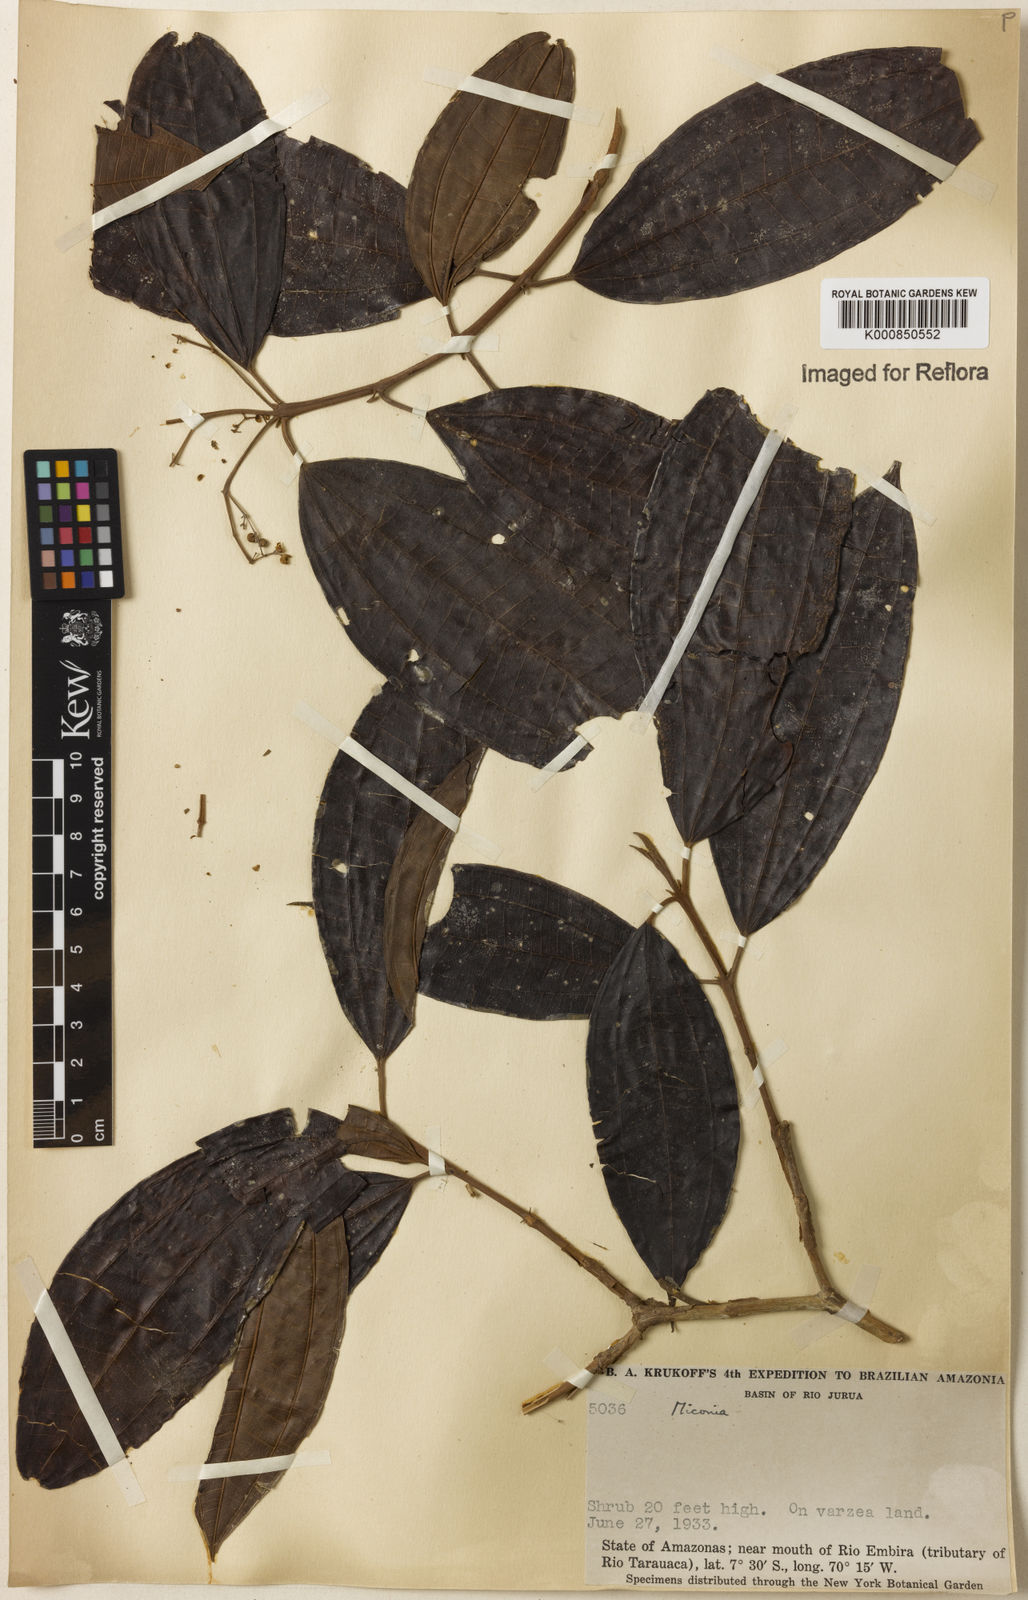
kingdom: Plantae
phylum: Tracheophyta
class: Magnoliopsida
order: Myrtales
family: Melastomataceae
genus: Miconia
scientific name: Miconia
